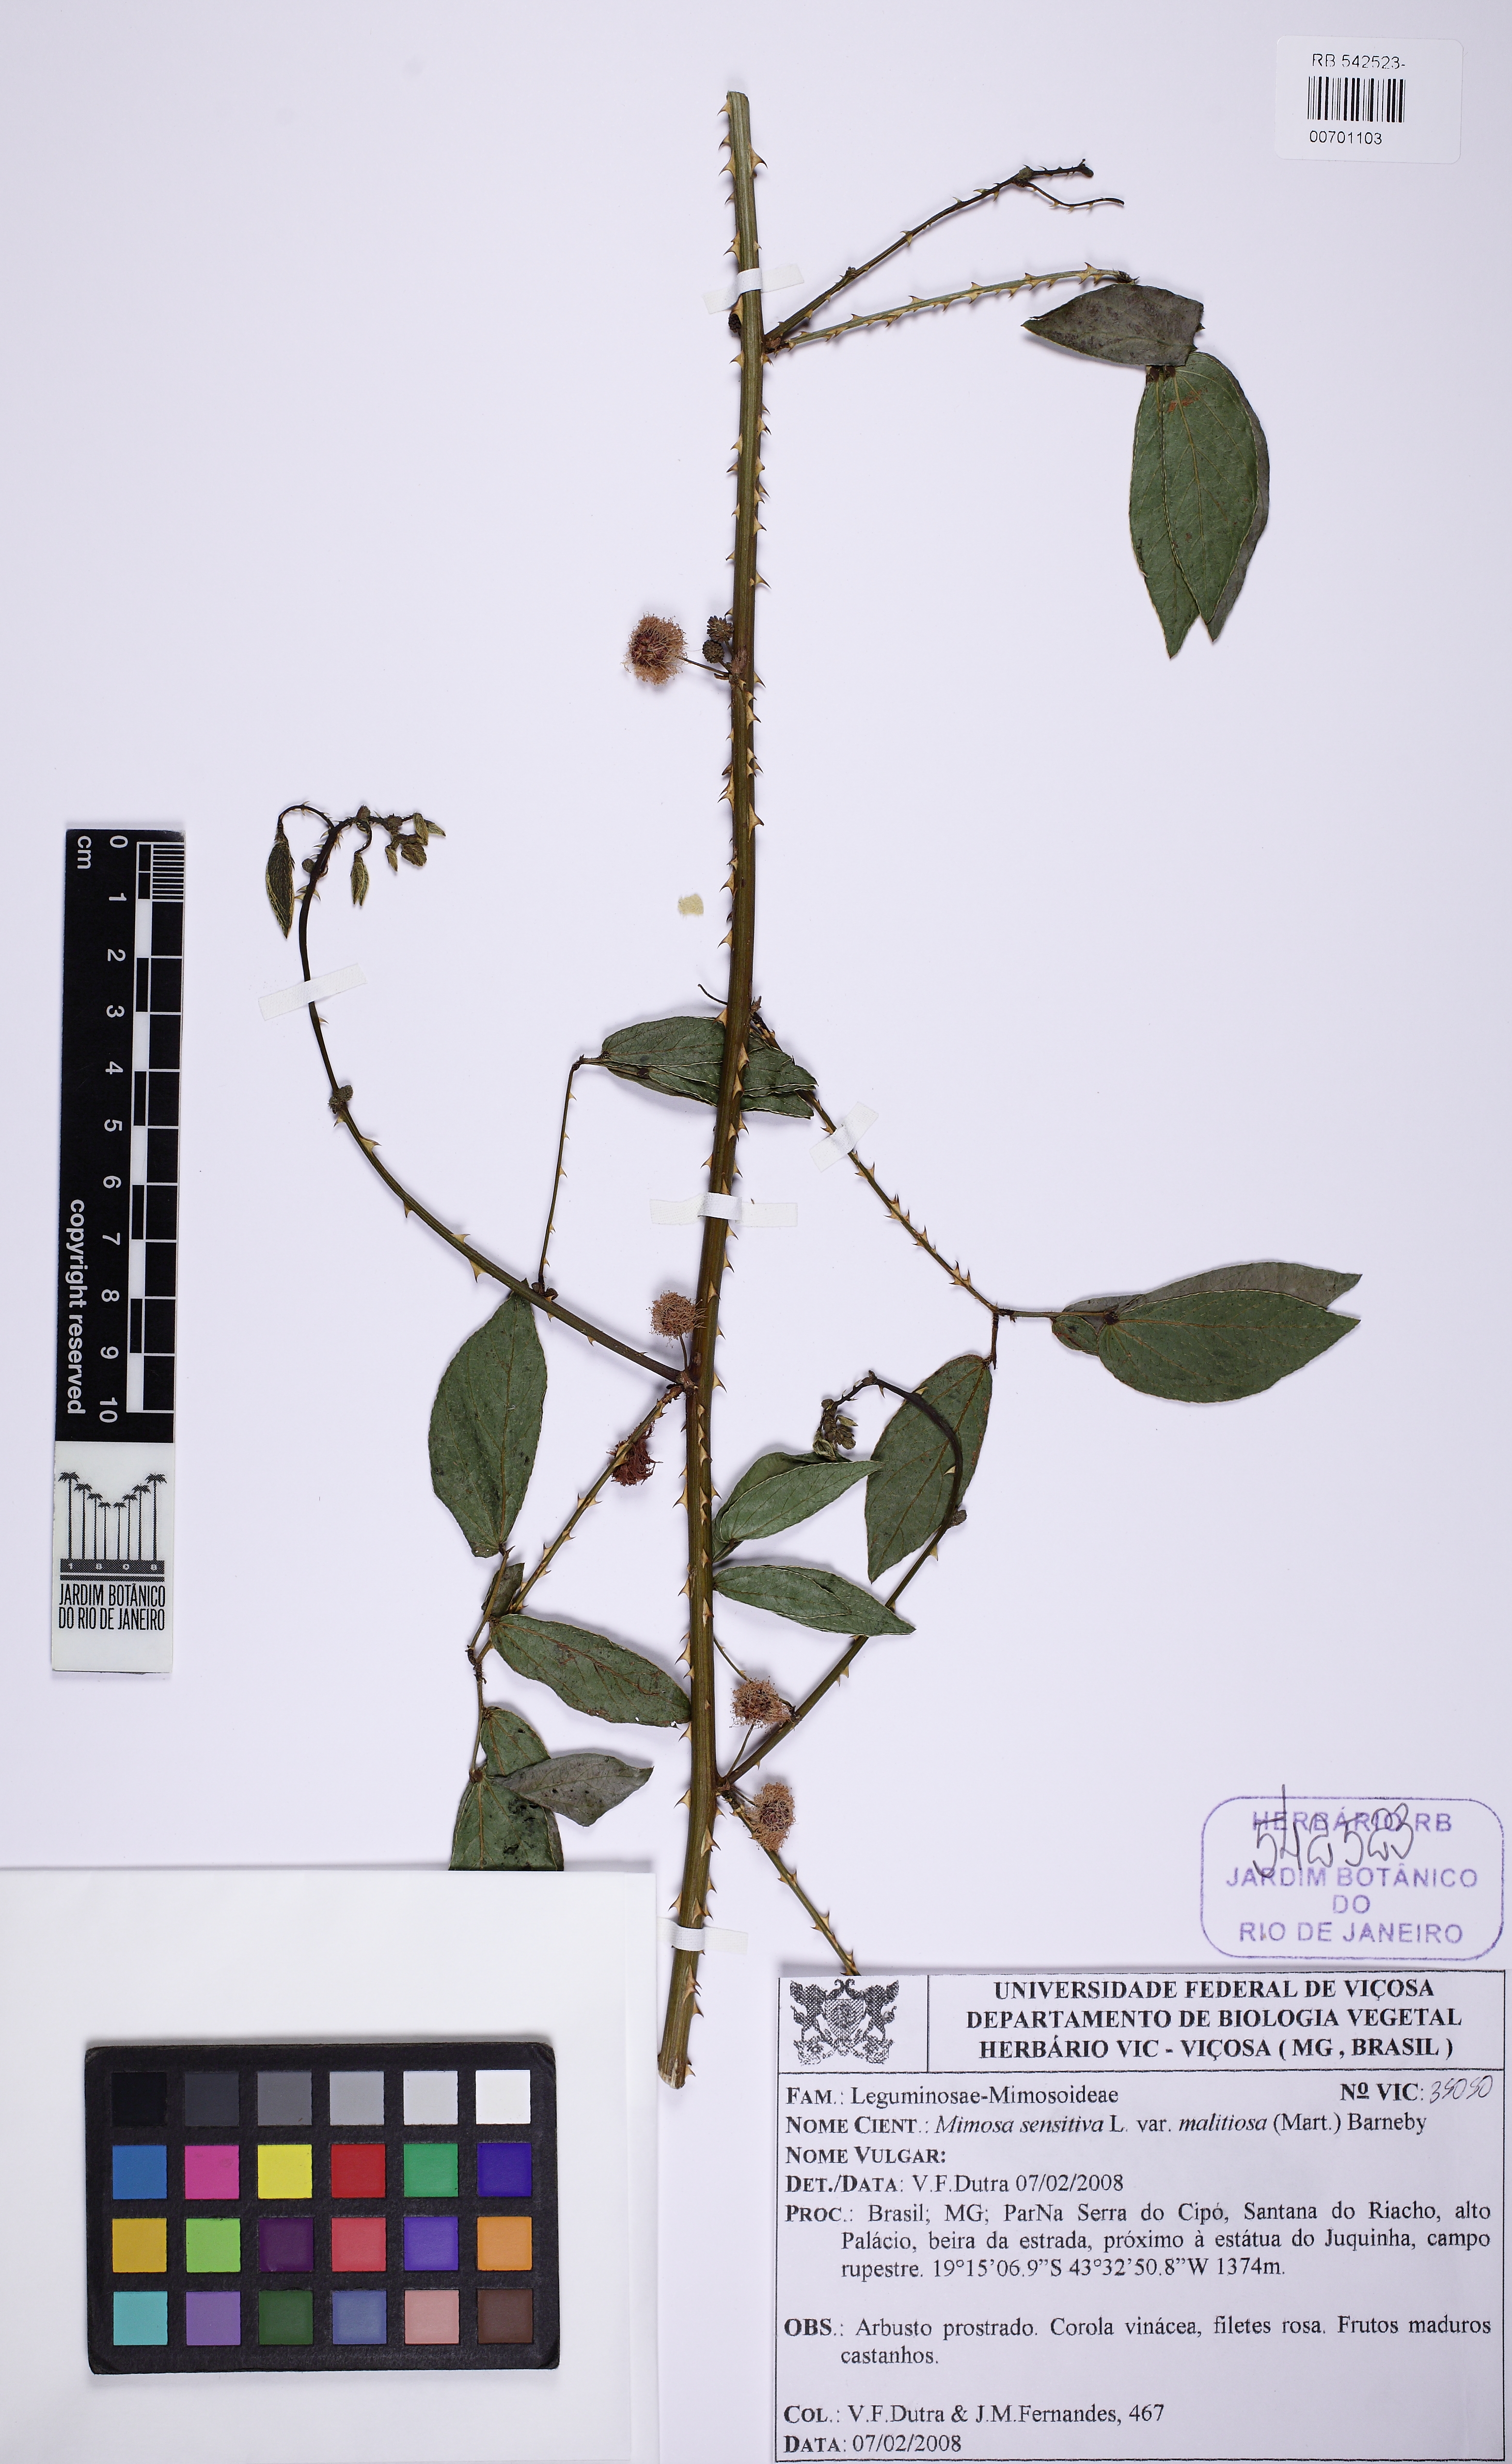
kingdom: Plantae
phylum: Tracheophyta
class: Magnoliopsida
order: Fabales
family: Fabaceae
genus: Mimosa
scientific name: Mimosa sensitiva
